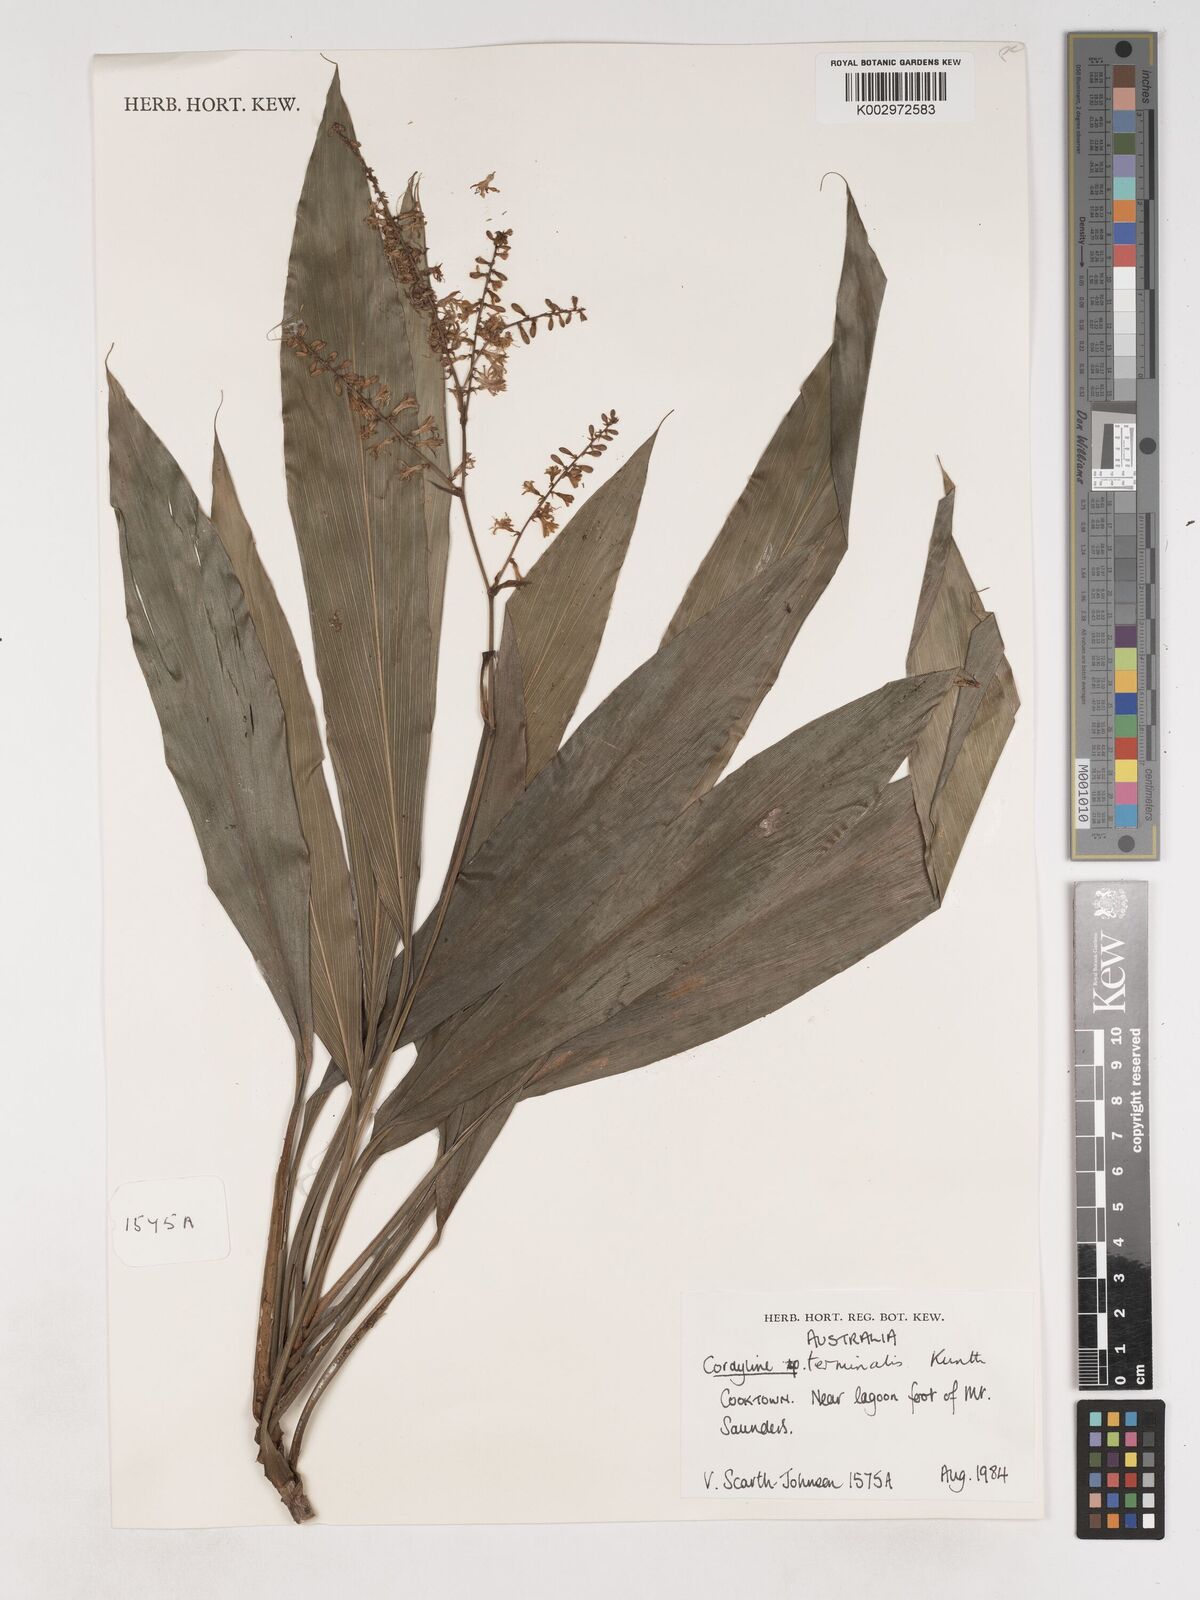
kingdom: Plantae
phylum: Tracheophyta
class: Liliopsida
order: Asparagales
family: Asparagaceae
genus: Cordyline
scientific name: Cordyline fruticosa
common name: Good-luck-plant
